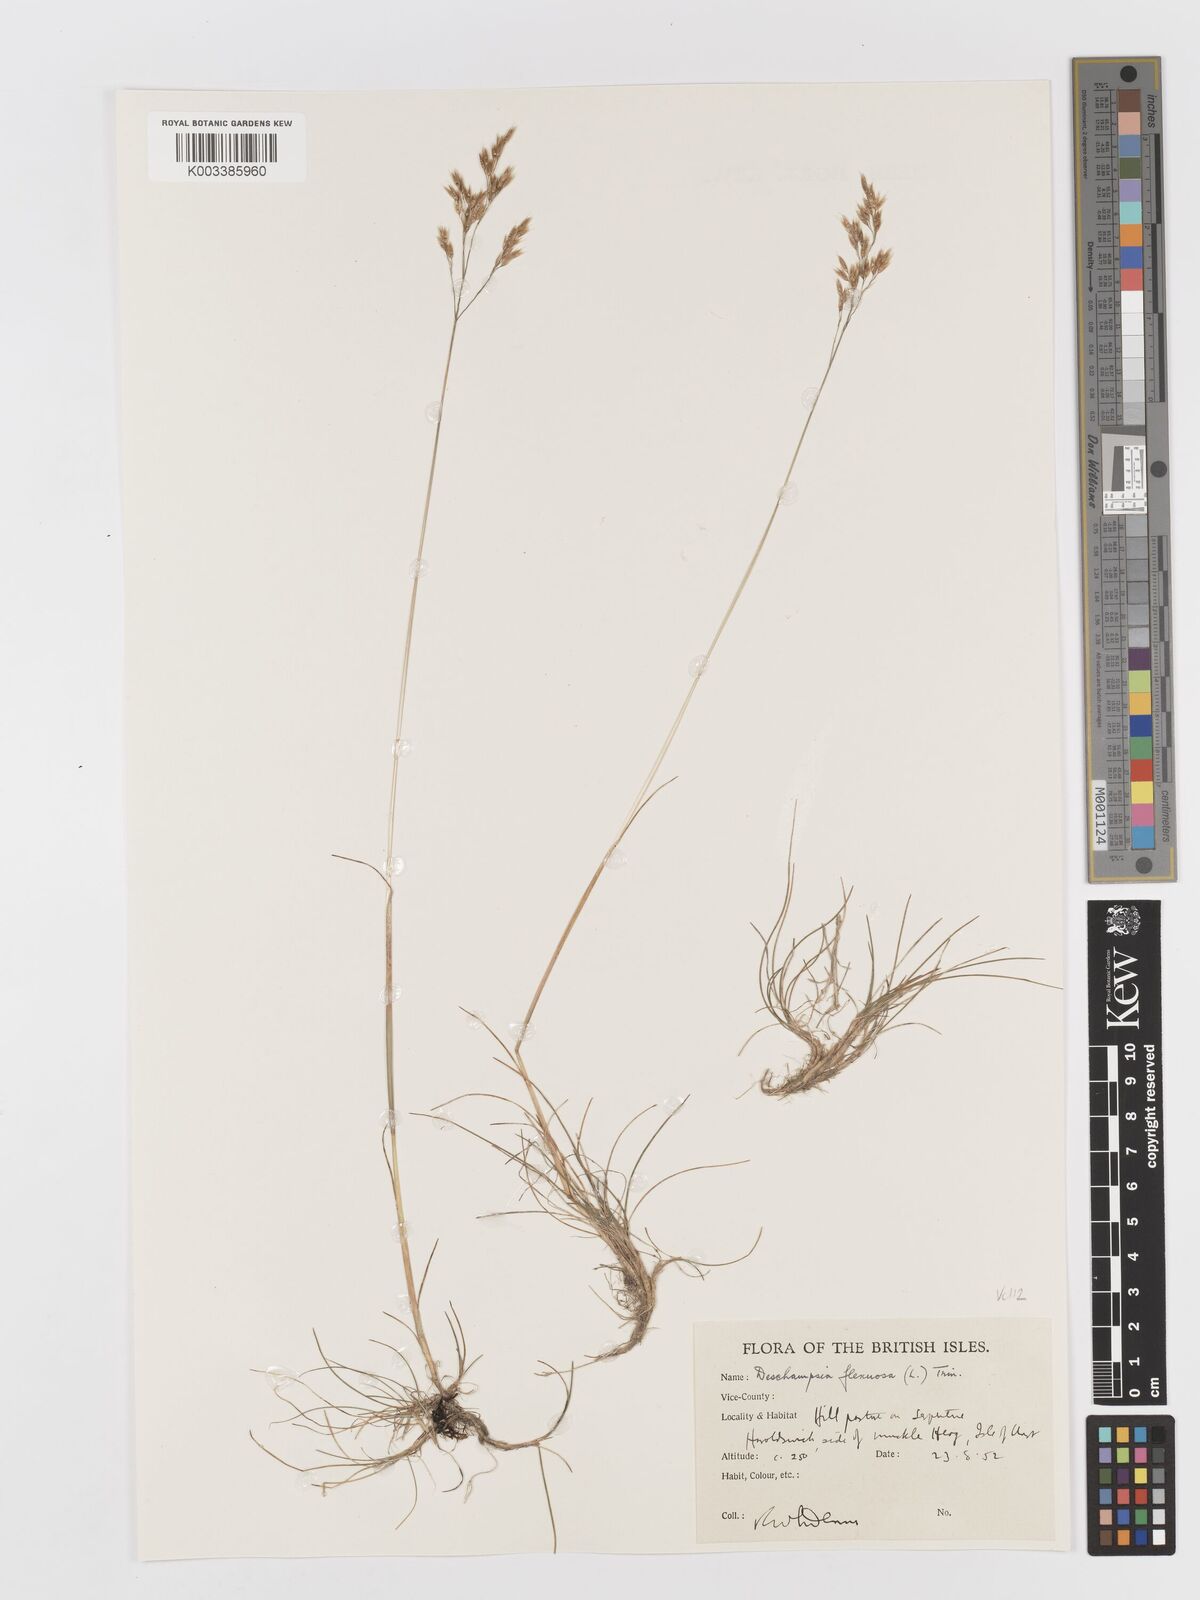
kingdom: Plantae
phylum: Tracheophyta
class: Liliopsida
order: Poales
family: Poaceae
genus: Avenella
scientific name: Avenella flexuosa
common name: Wavy hairgrass
